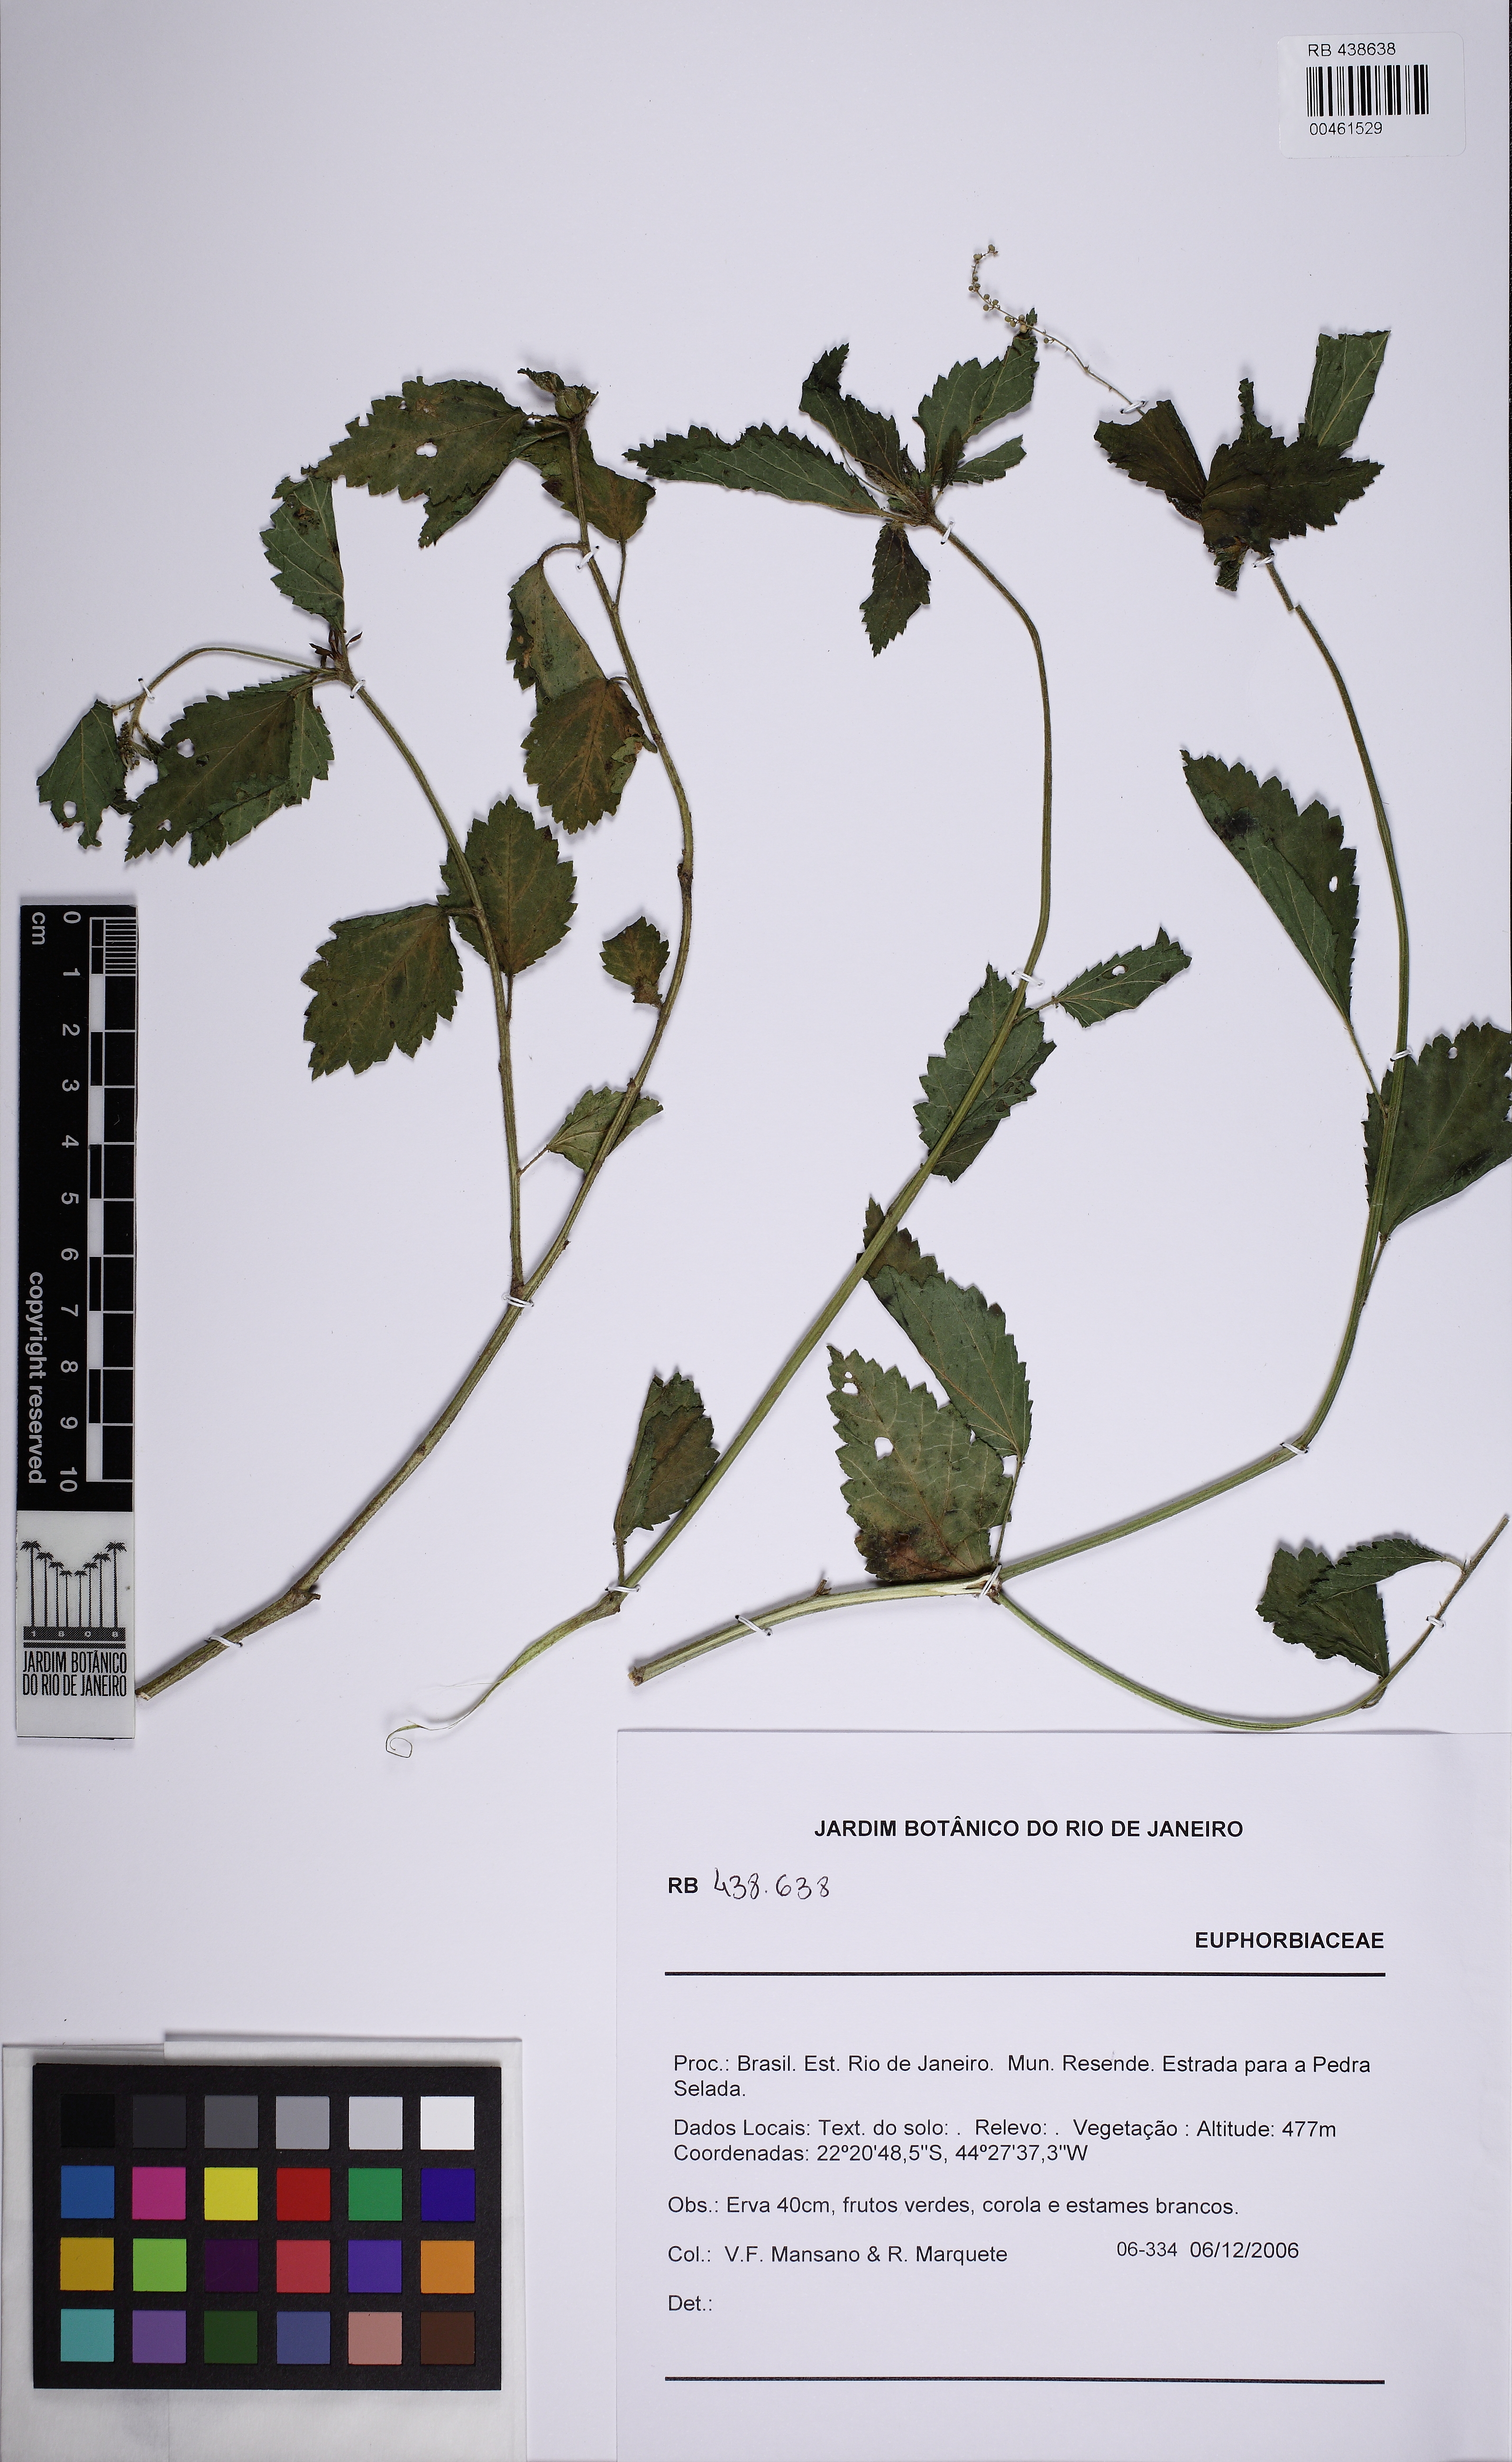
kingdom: Plantae
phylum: Tracheophyta
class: Magnoliopsida
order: Malpighiales
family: Euphorbiaceae
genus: Croton
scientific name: Croton lundianus
